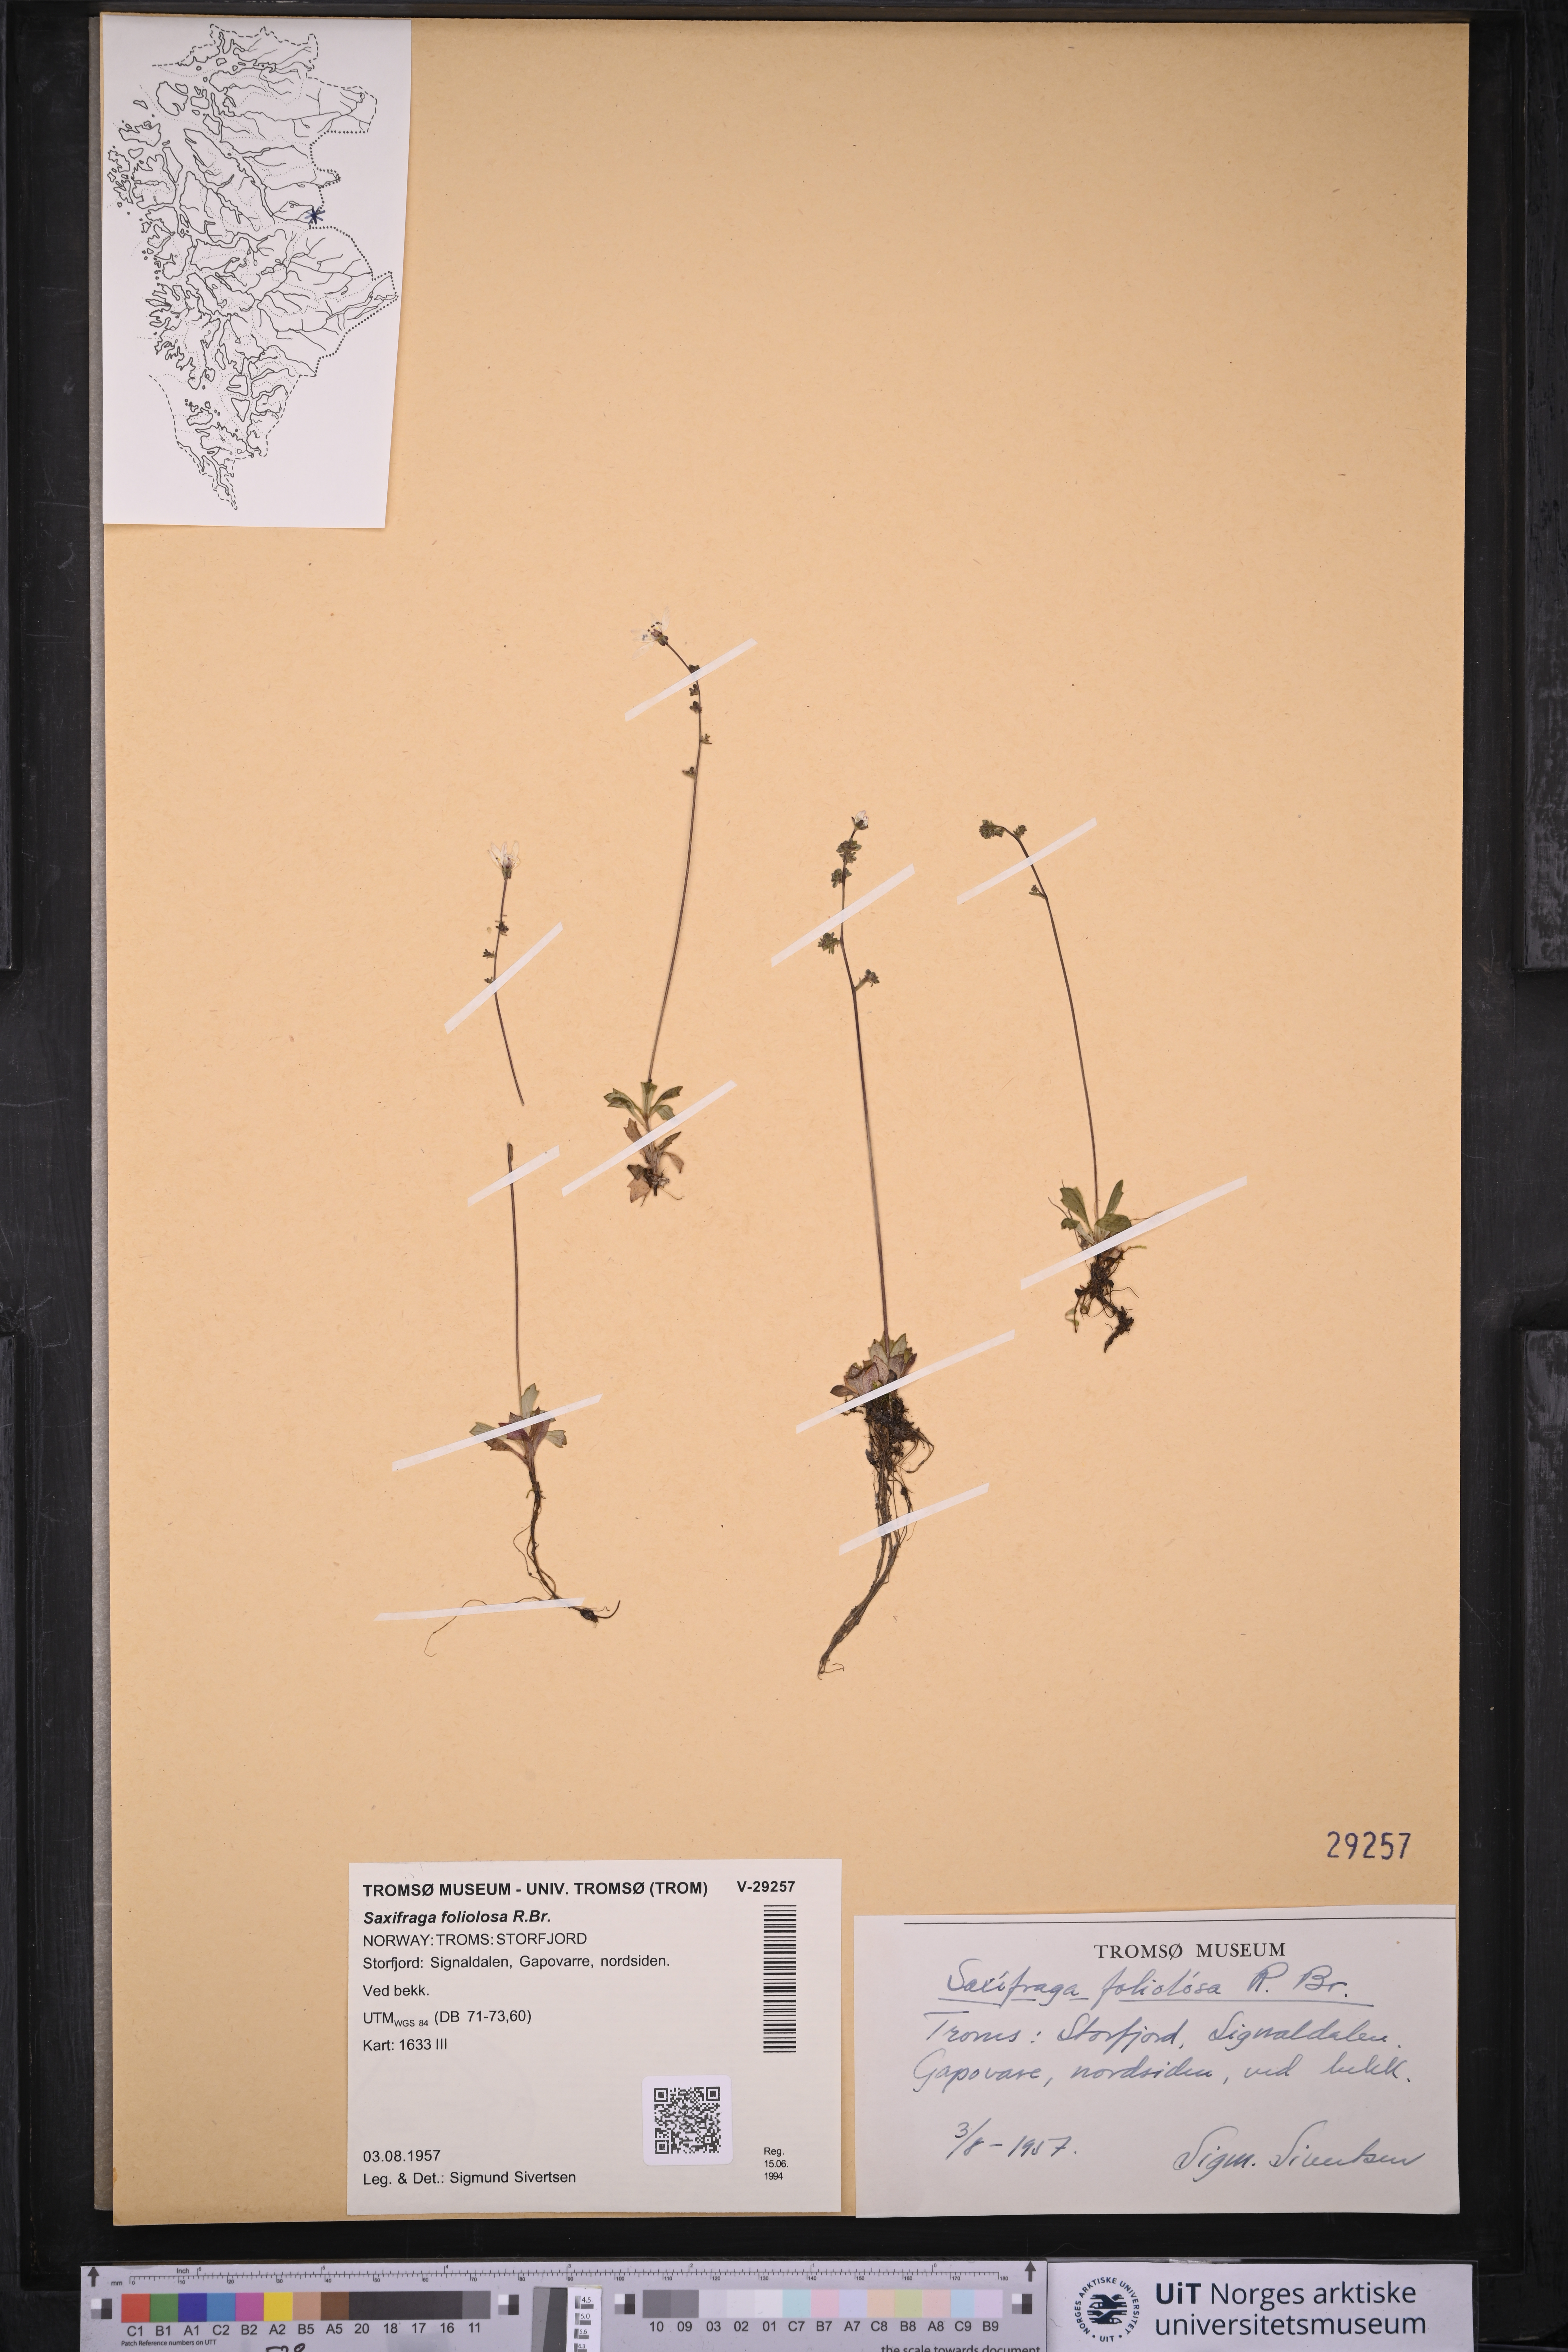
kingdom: Plantae
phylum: Tracheophyta
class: Magnoliopsida
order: Saxifragales
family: Saxifragaceae
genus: Micranthes
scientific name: Micranthes foliolosa
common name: Leafystem saxifrage
